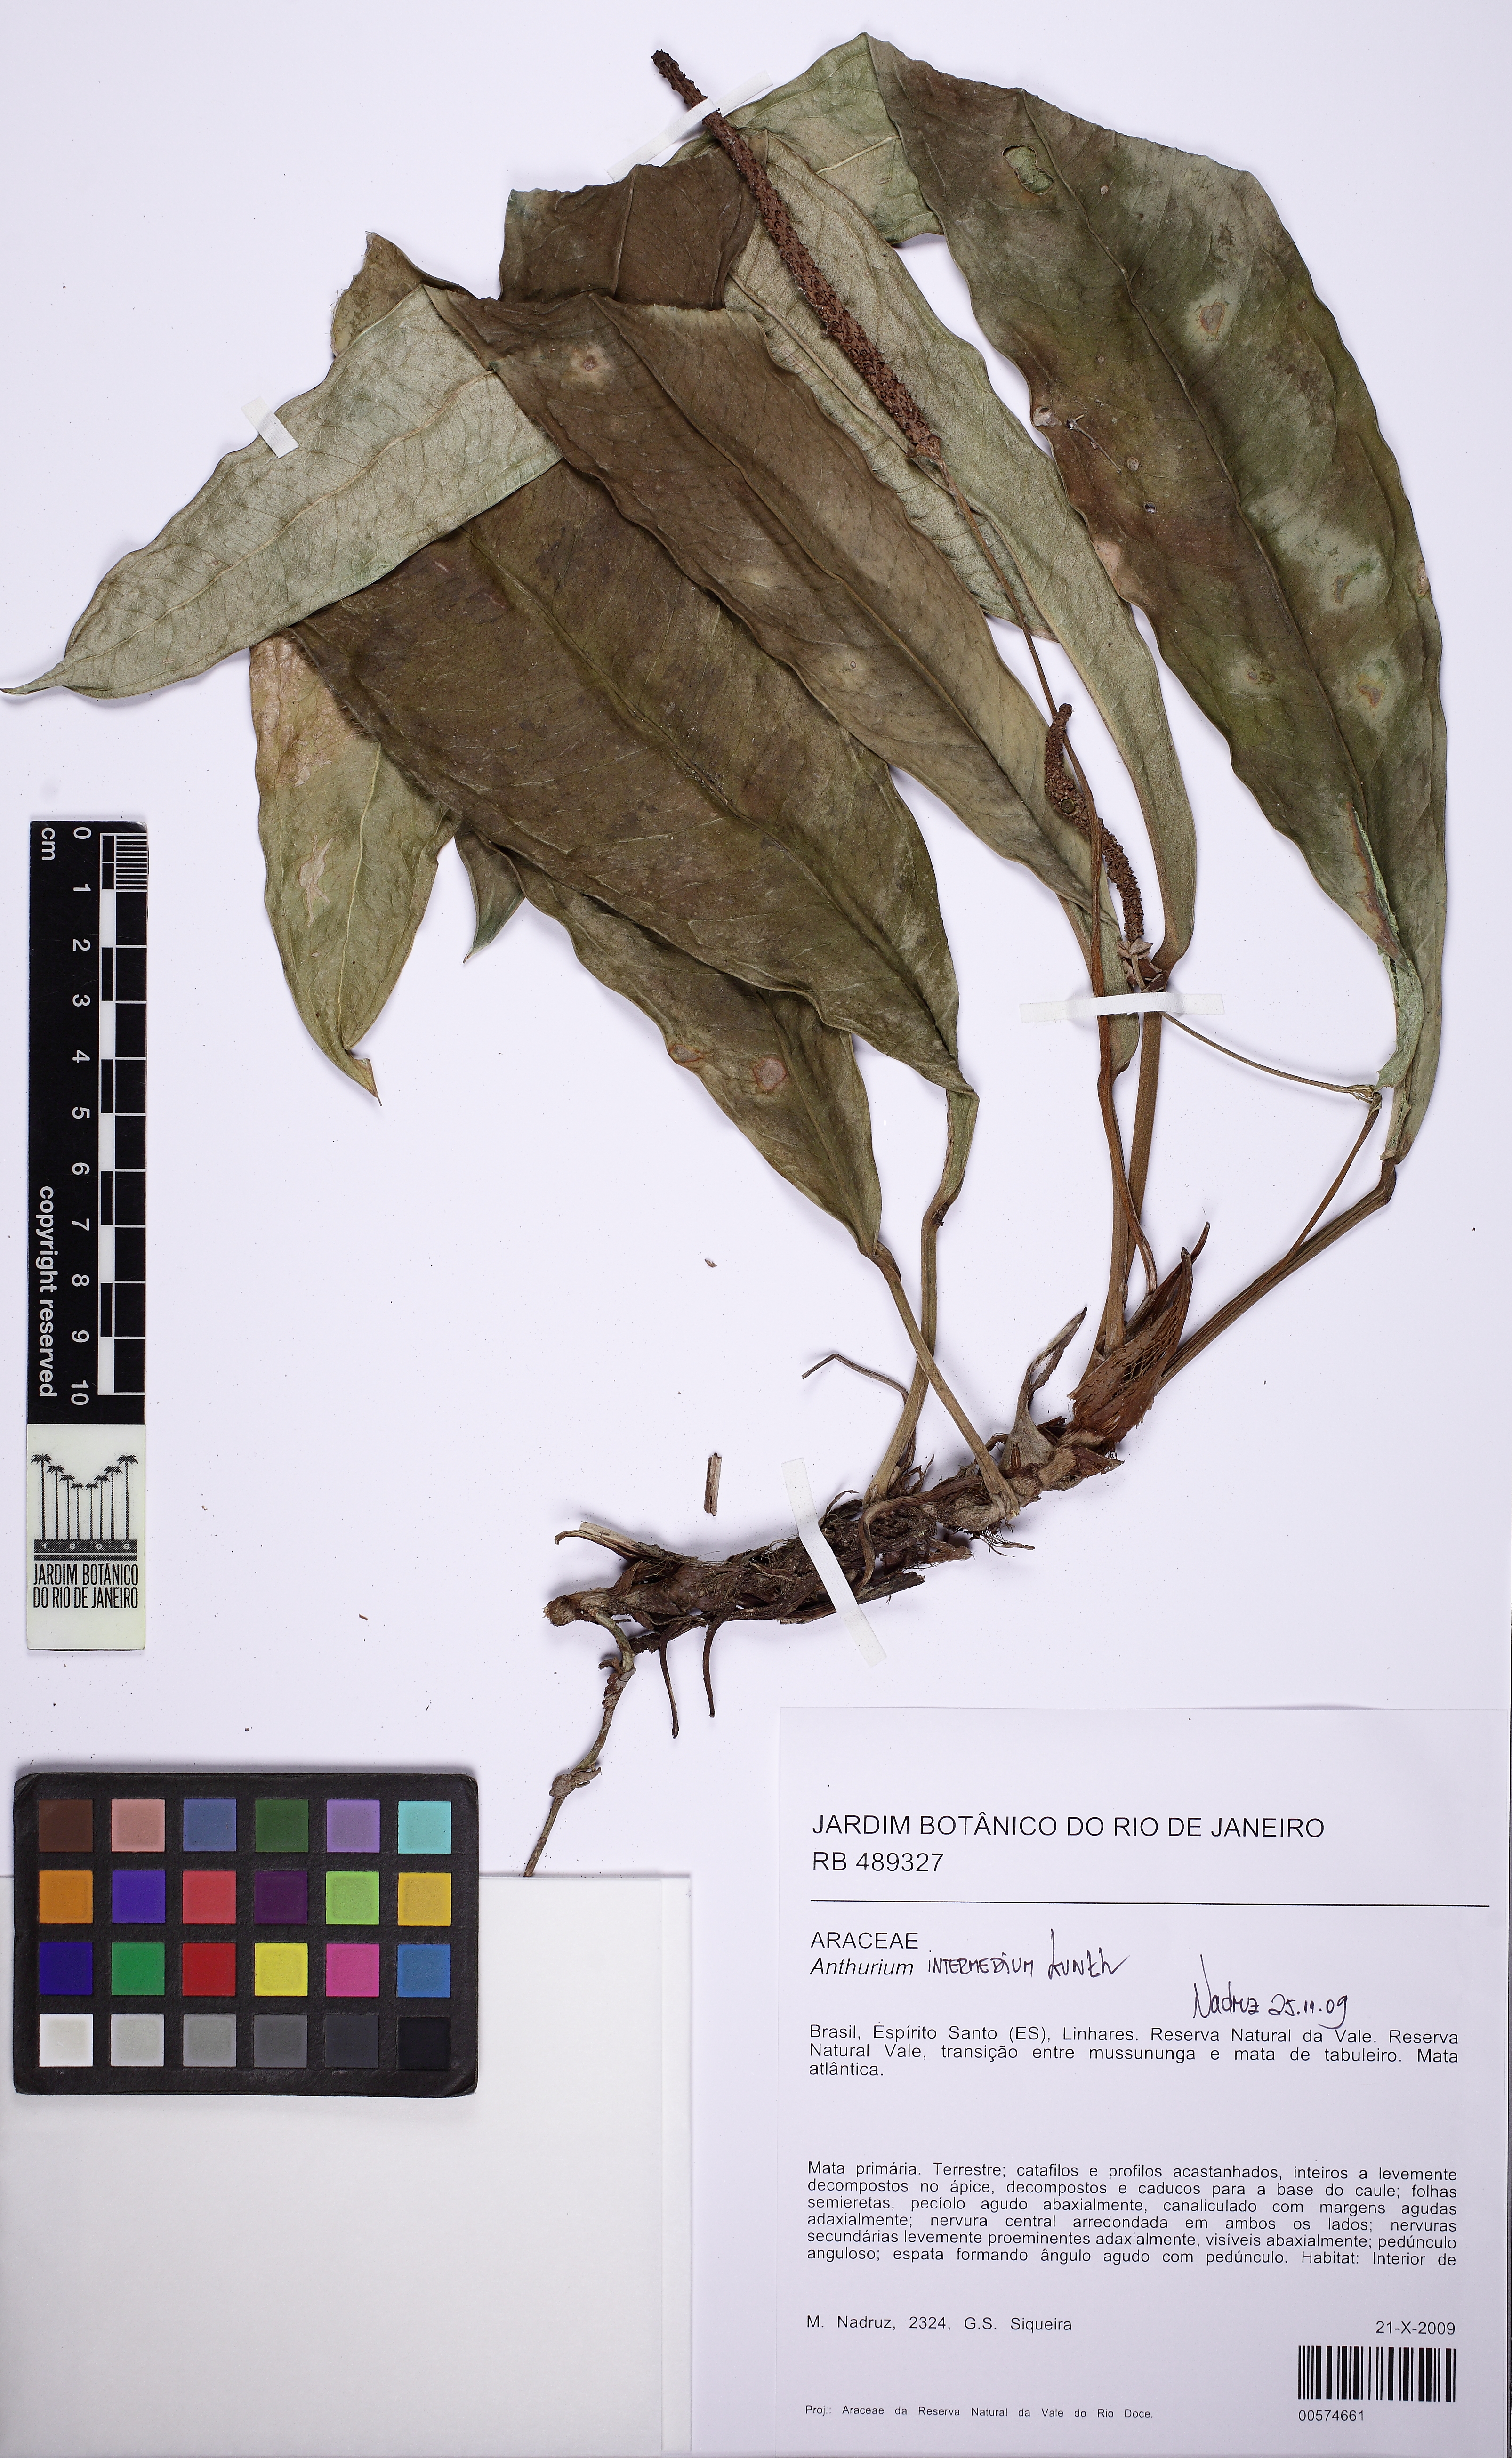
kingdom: Plantae
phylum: Tracheophyta
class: Liliopsida
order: Alismatales
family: Araceae
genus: Anthurium
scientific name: Anthurium intermedium
